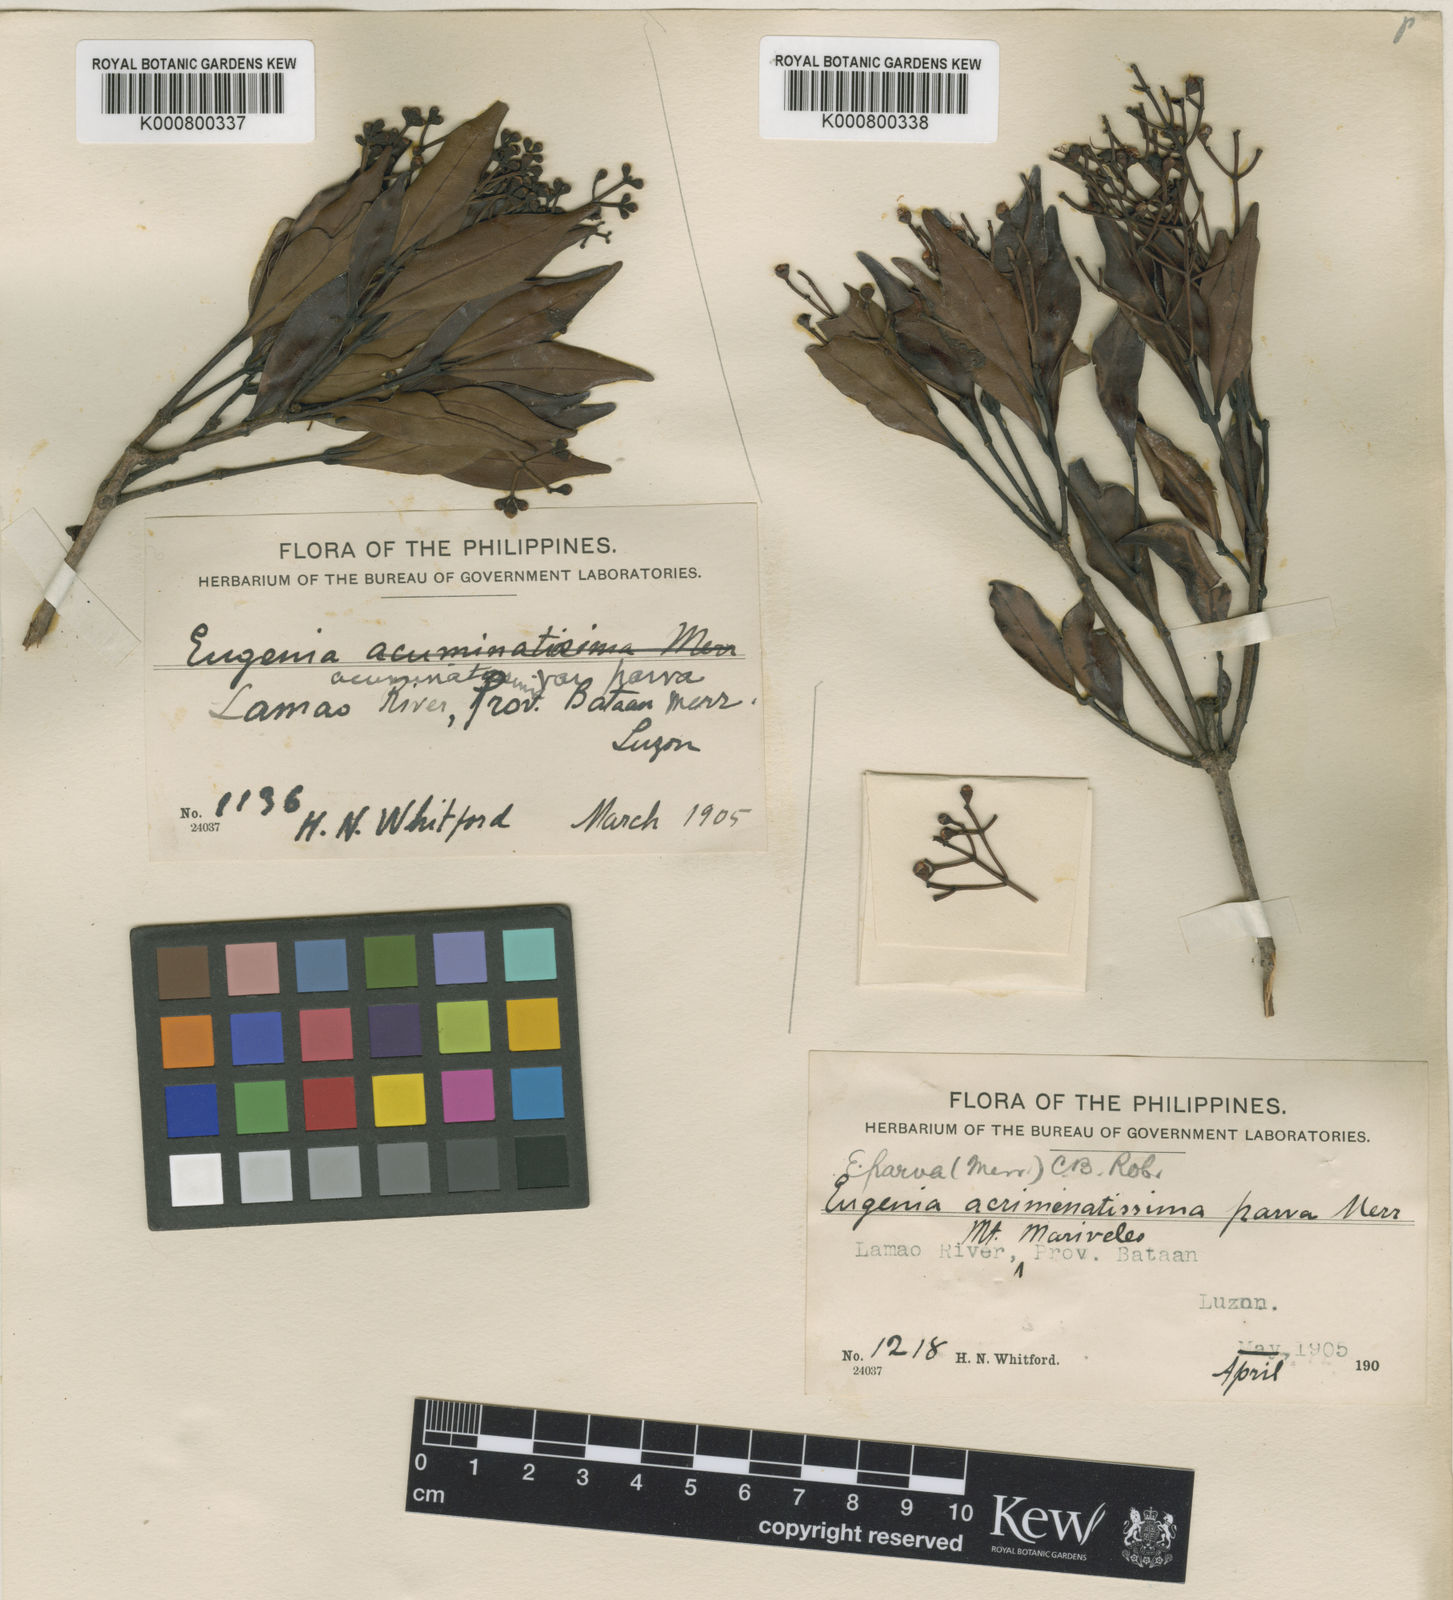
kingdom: Plantae
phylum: Tracheophyta
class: Magnoliopsida
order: Myrtales
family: Myrtaceae
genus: Syzygium
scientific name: Syzygium
